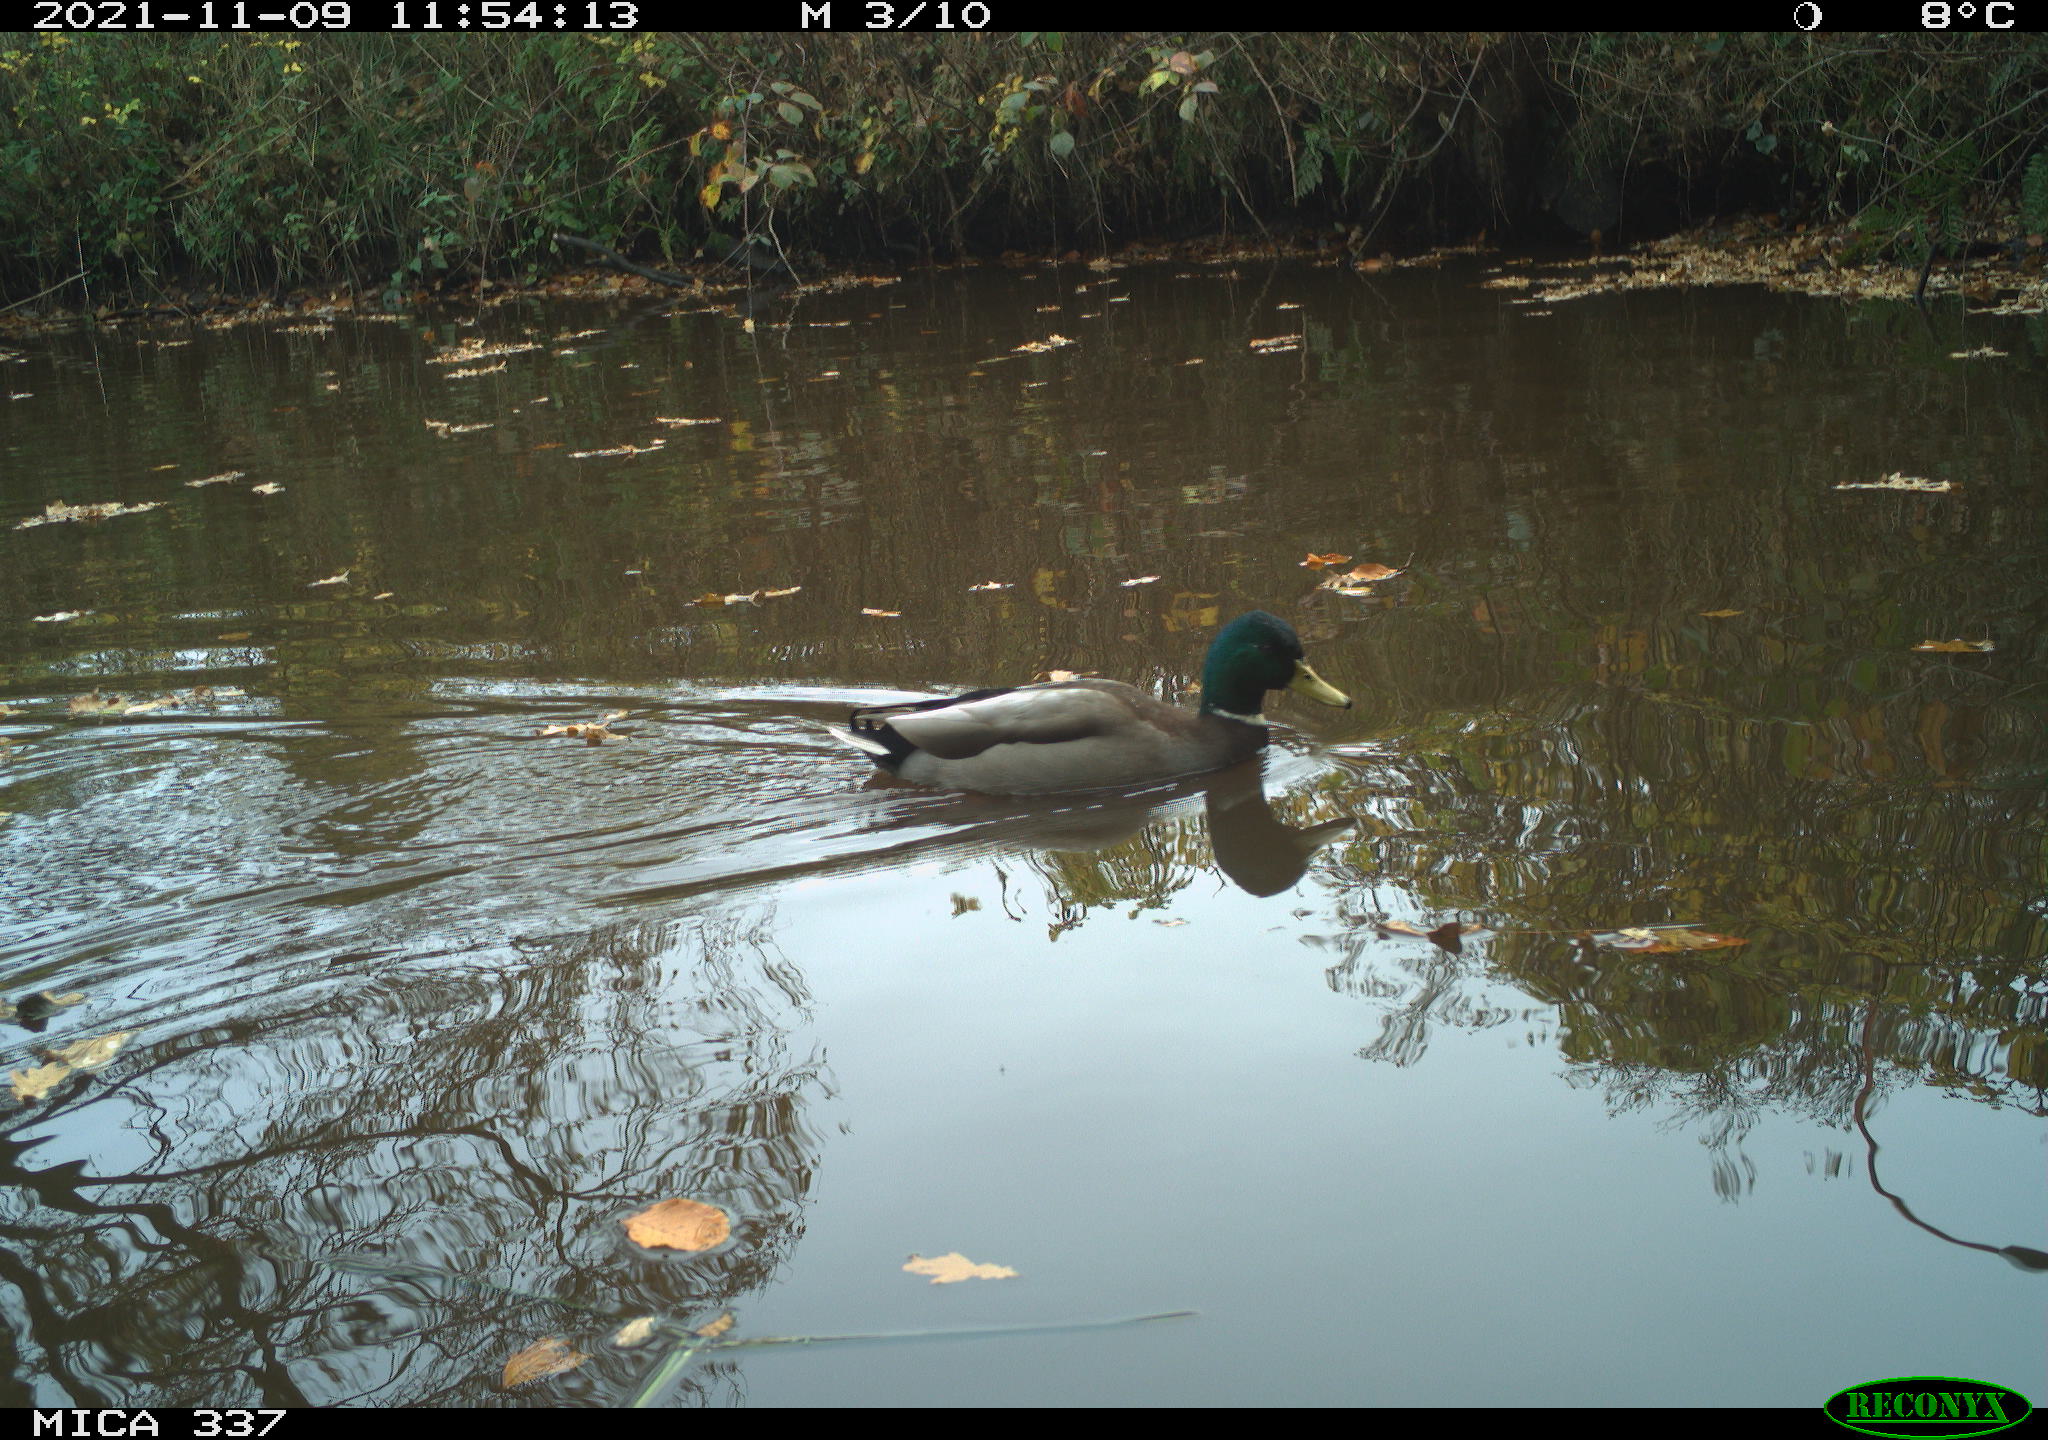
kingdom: Animalia
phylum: Chordata
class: Aves
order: Anseriformes
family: Anatidae
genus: Anas
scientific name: Anas platyrhynchos
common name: Mallard
